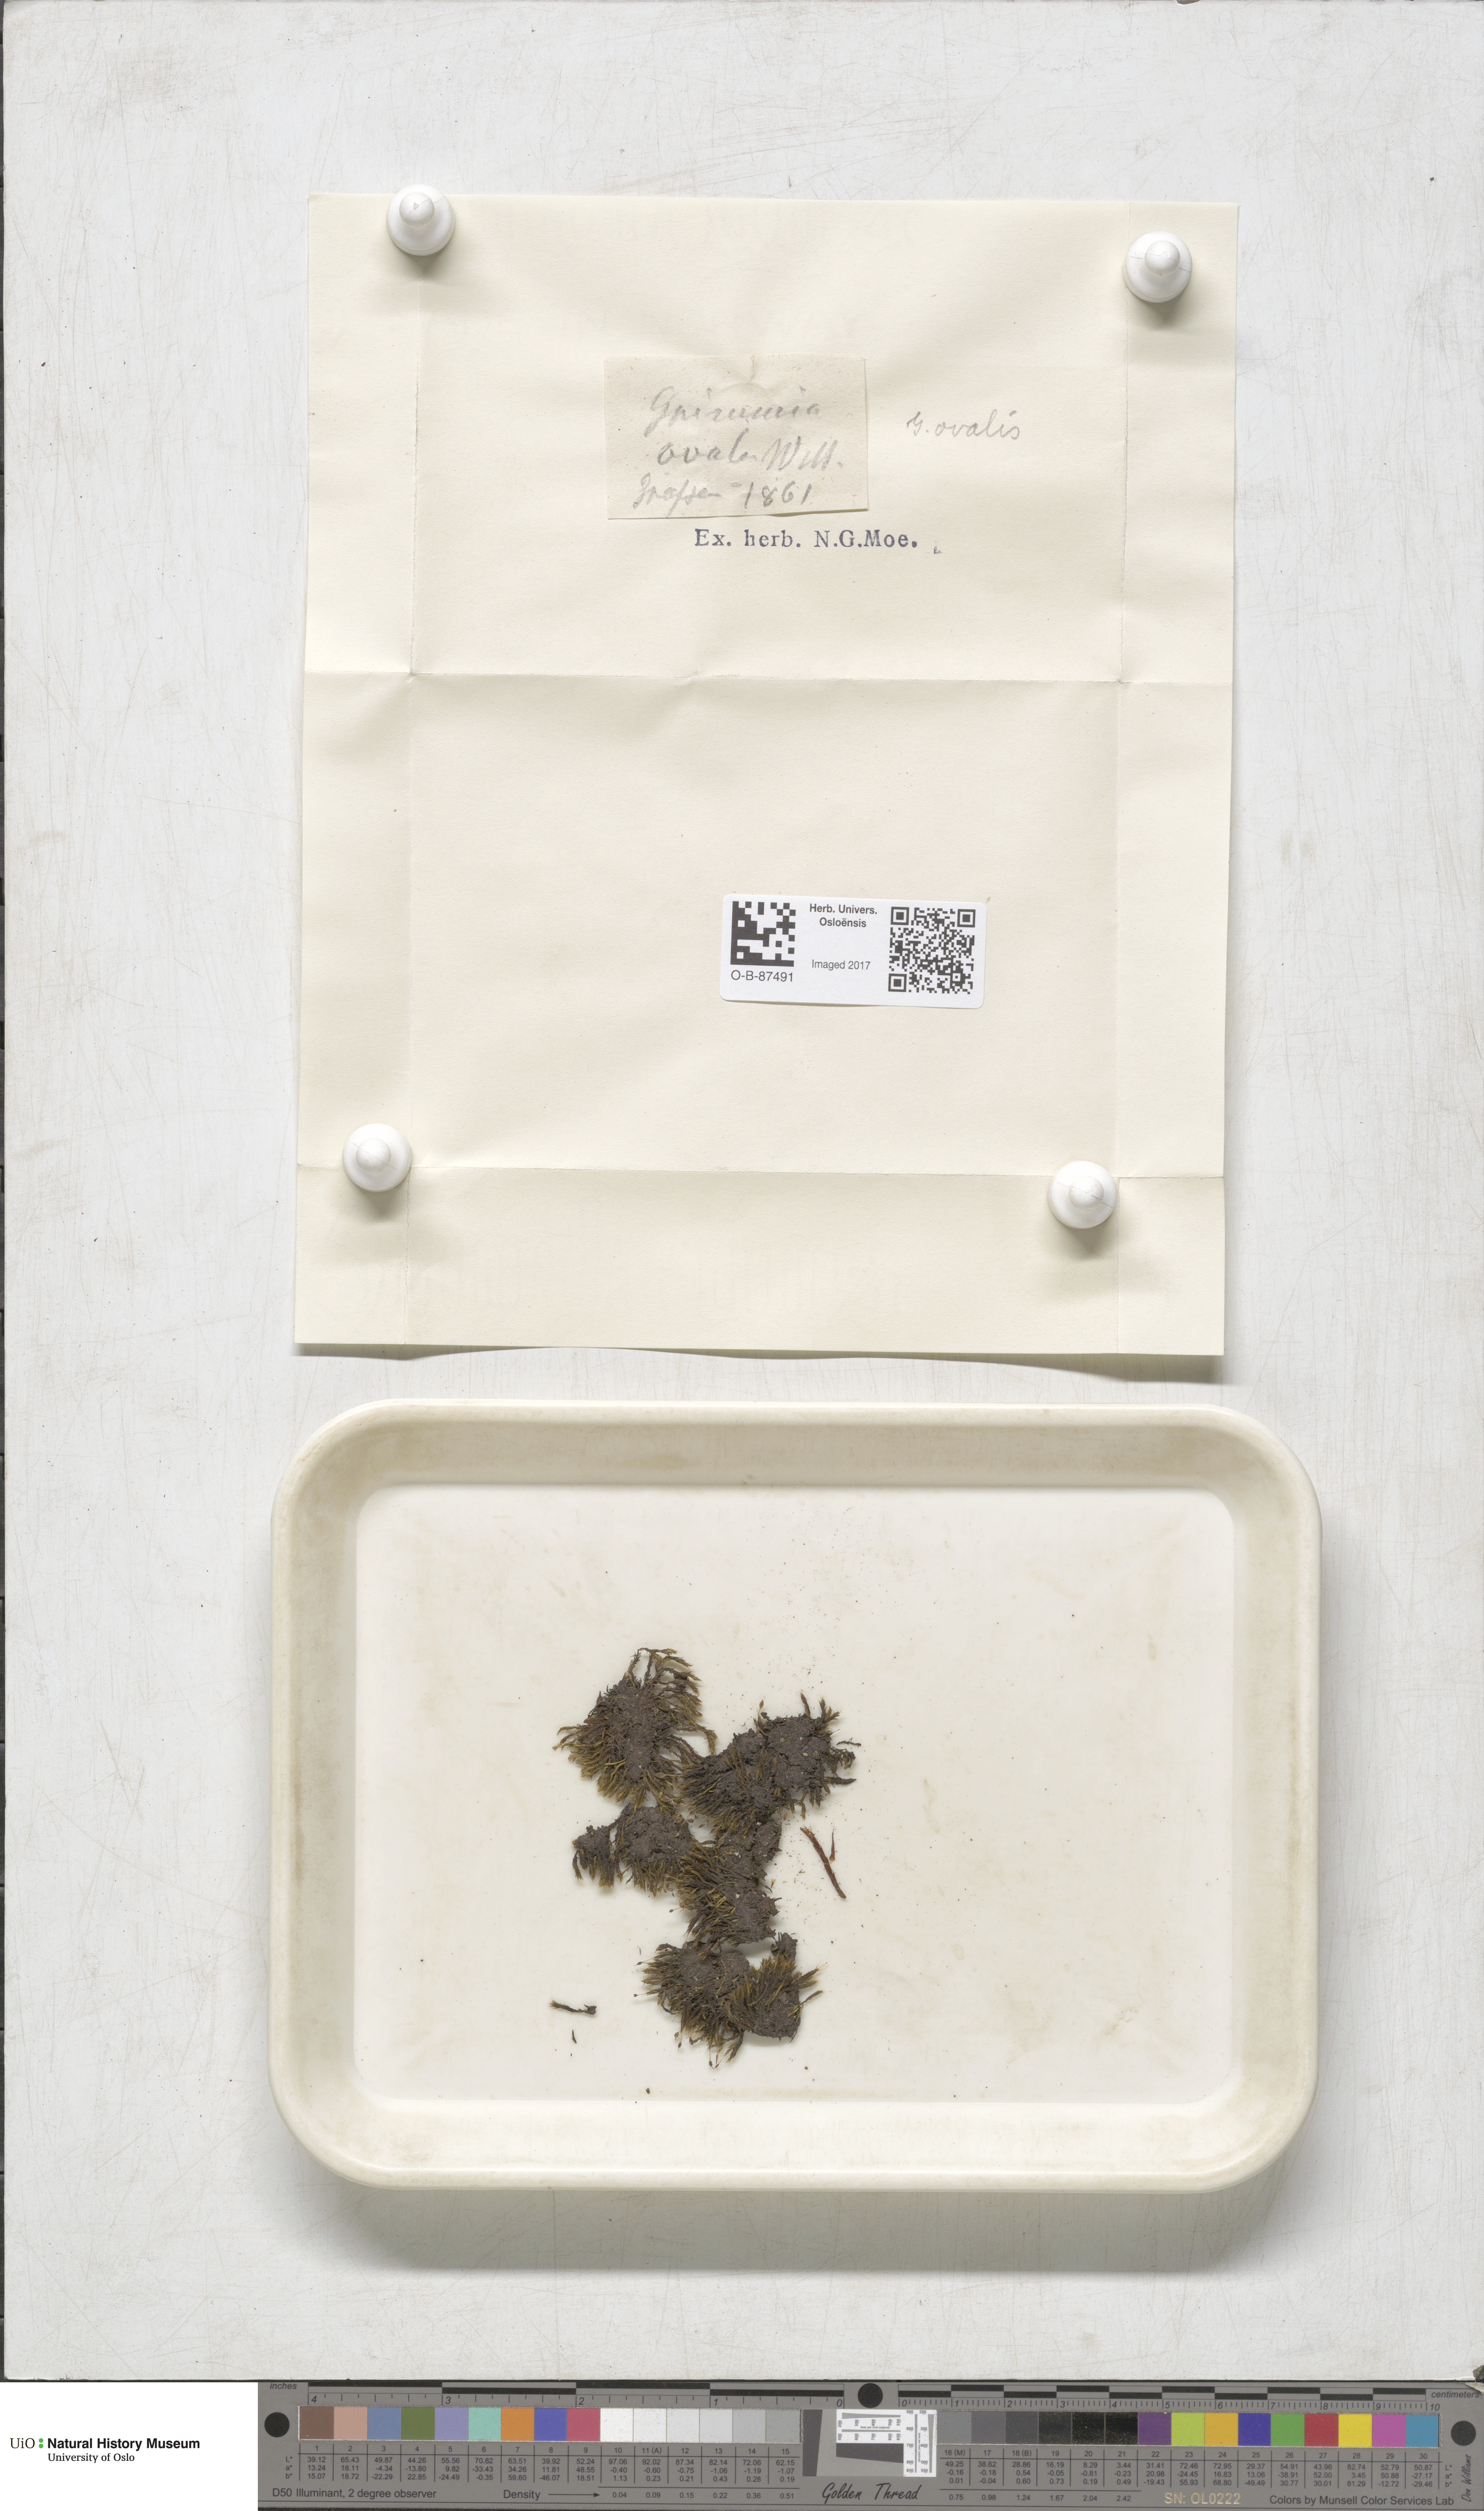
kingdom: Plantae
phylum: Bryophyta
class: Bryopsida
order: Grimmiales
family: Grimmiaceae
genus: Grimmia
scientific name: Grimmia ovalis
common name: Oval grimmia
